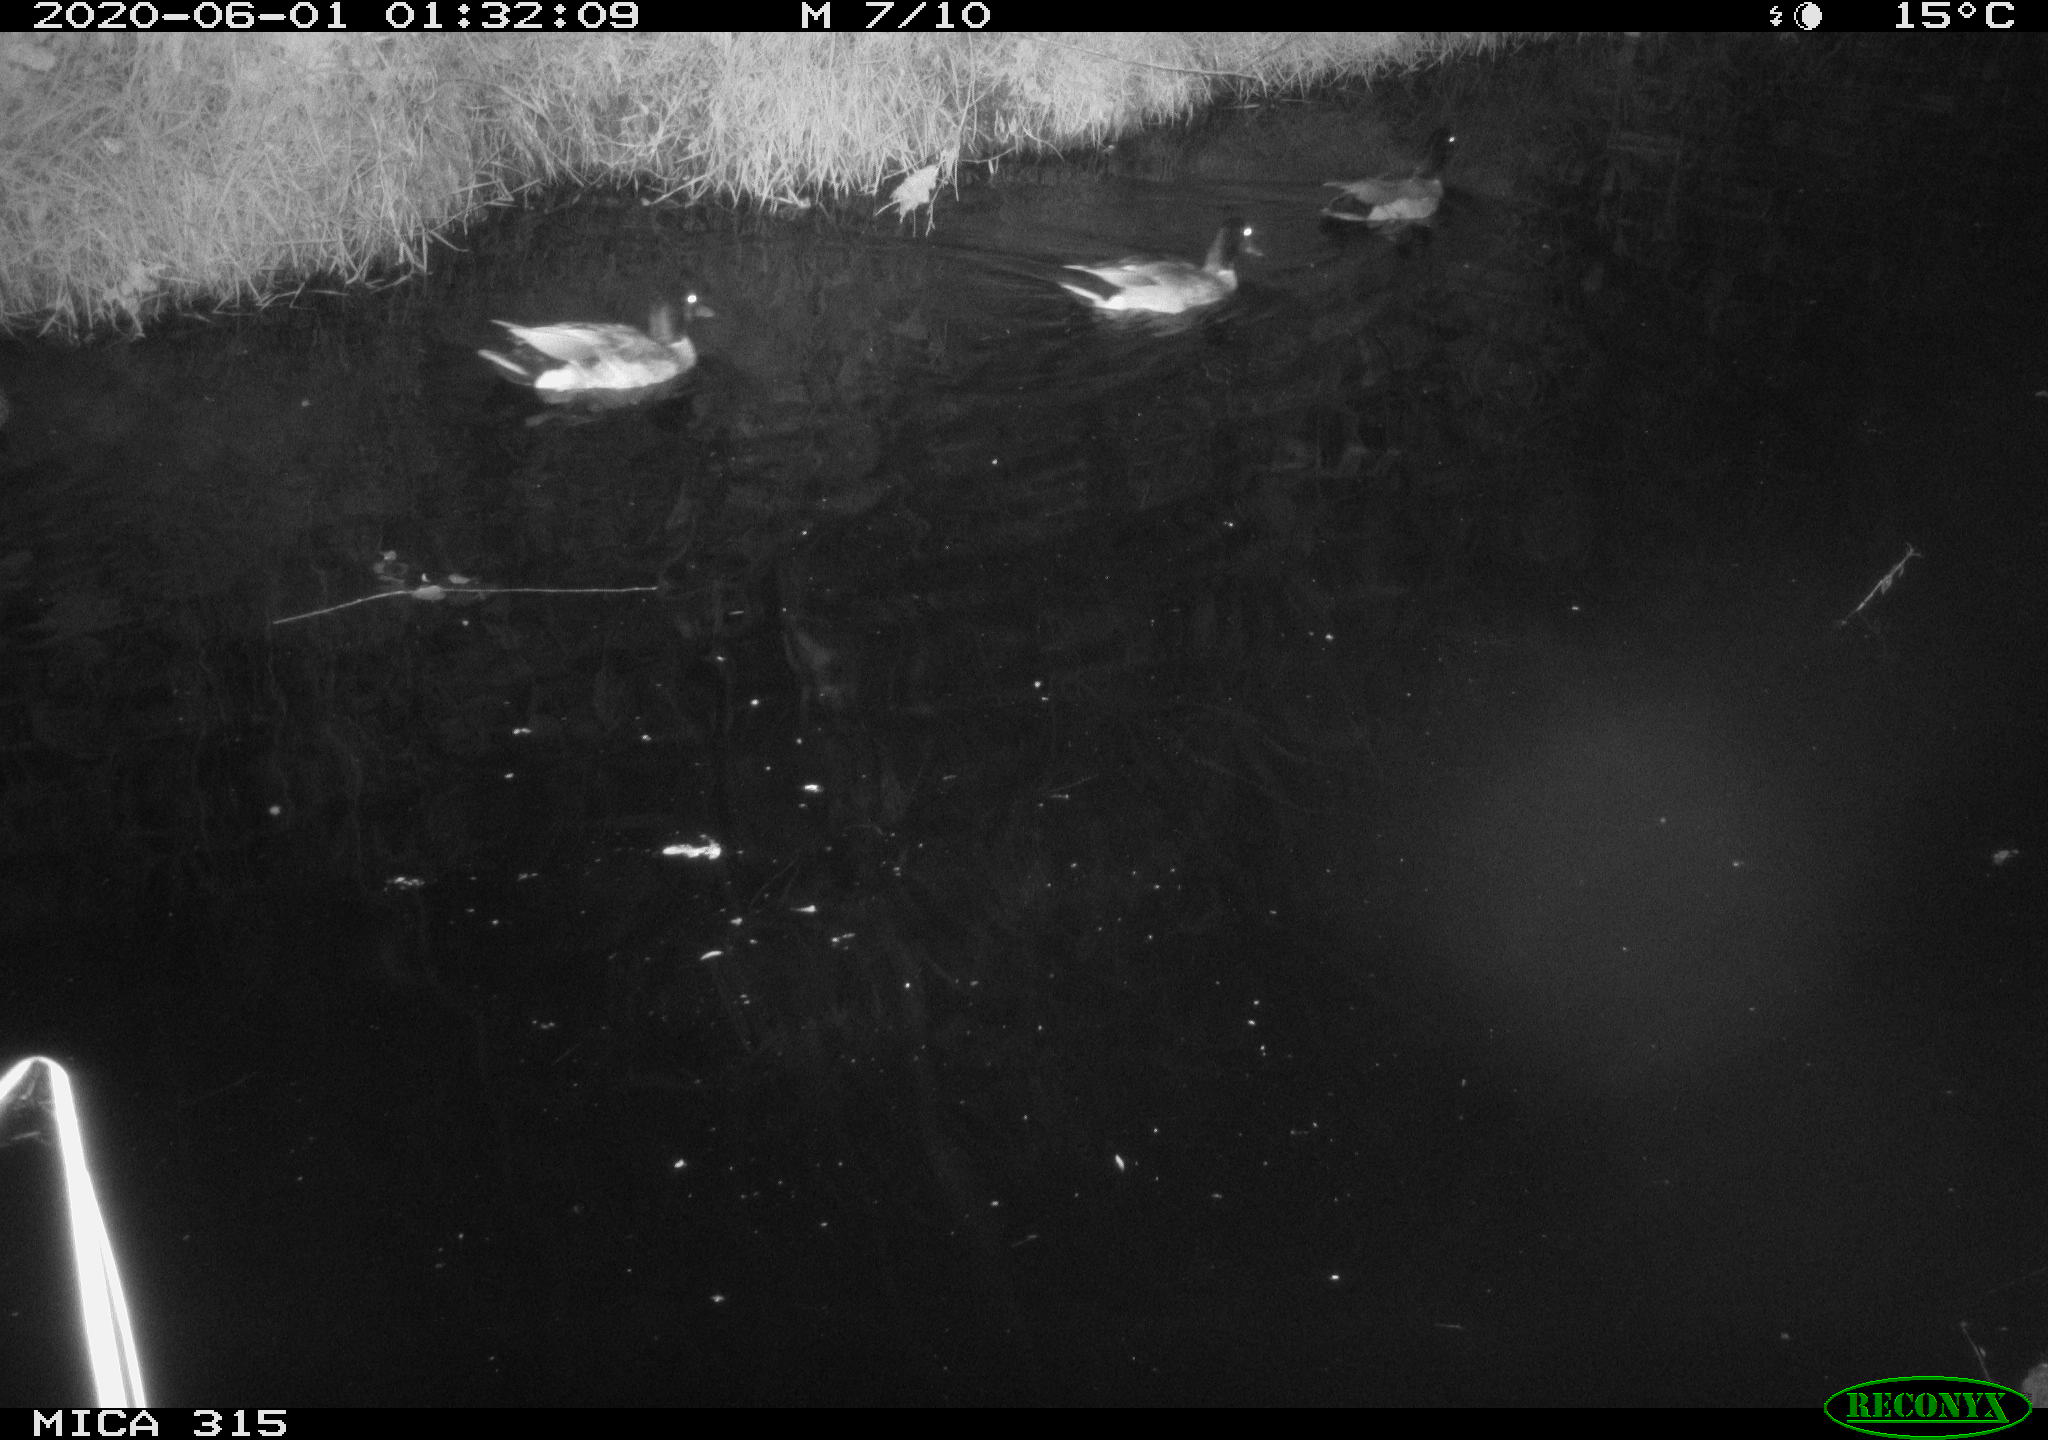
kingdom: Animalia
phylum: Chordata
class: Aves
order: Anseriformes
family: Anatidae
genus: Anas
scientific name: Anas platyrhynchos
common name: Mallard
